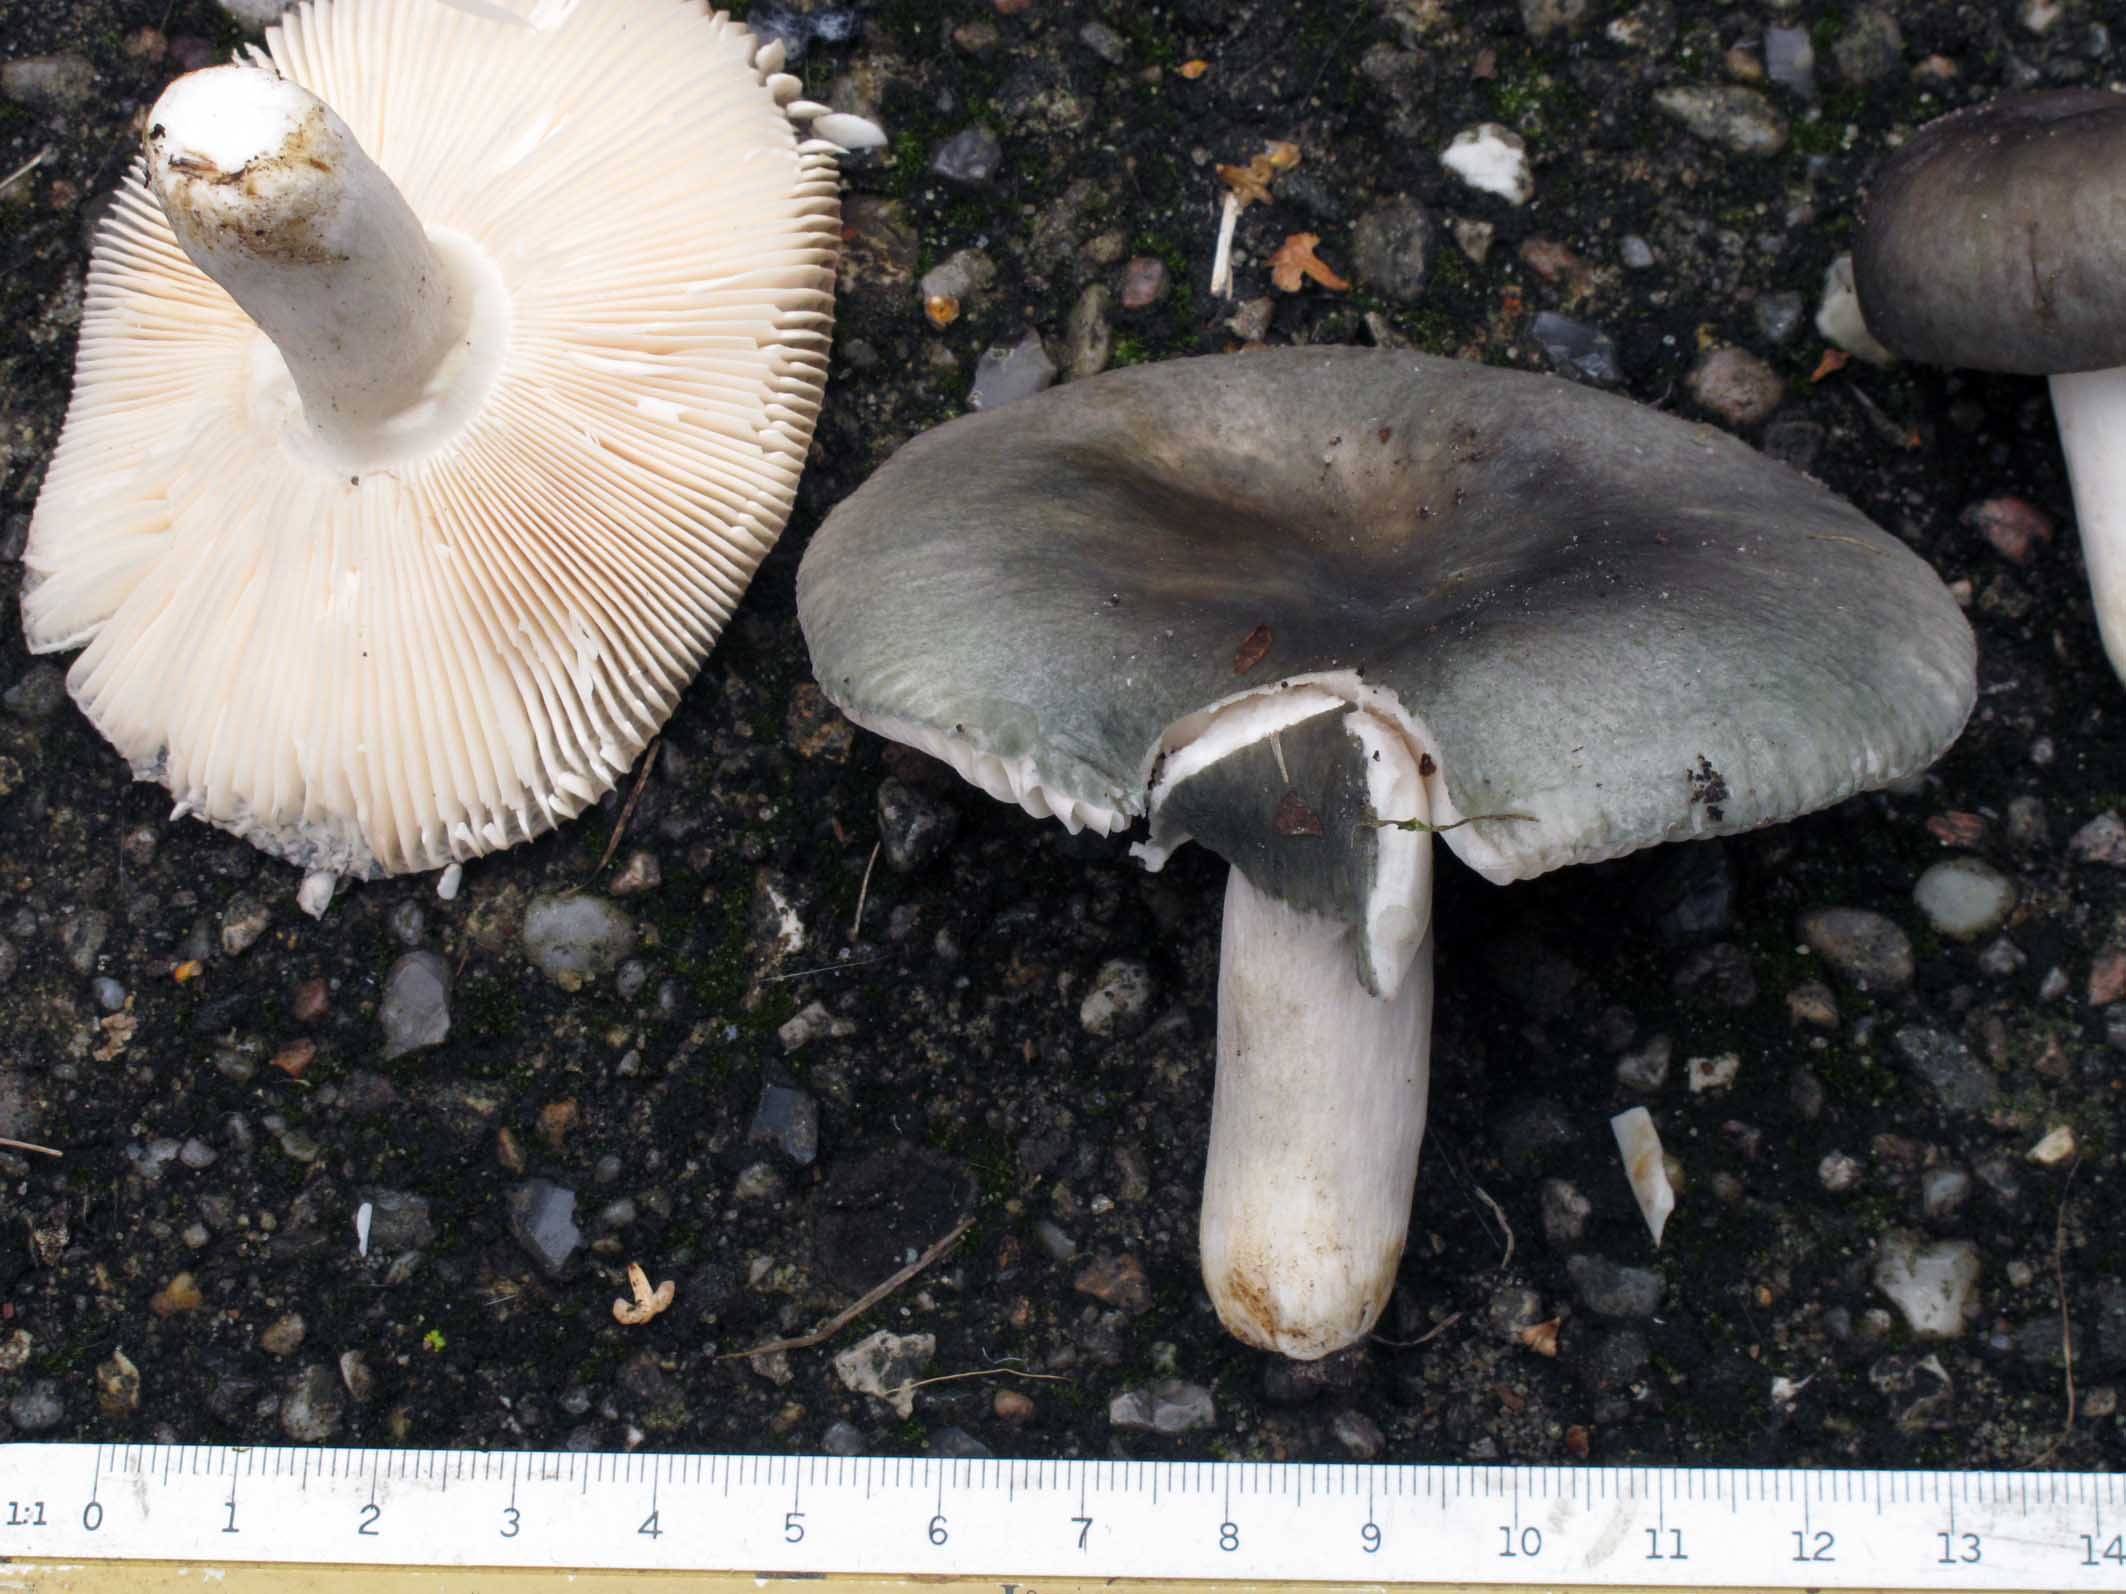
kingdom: Fungi
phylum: Basidiomycota
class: Agaricomycetes
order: Russulales
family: Russulaceae
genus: Russula
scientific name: Russula grisea
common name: grålig skørhat
